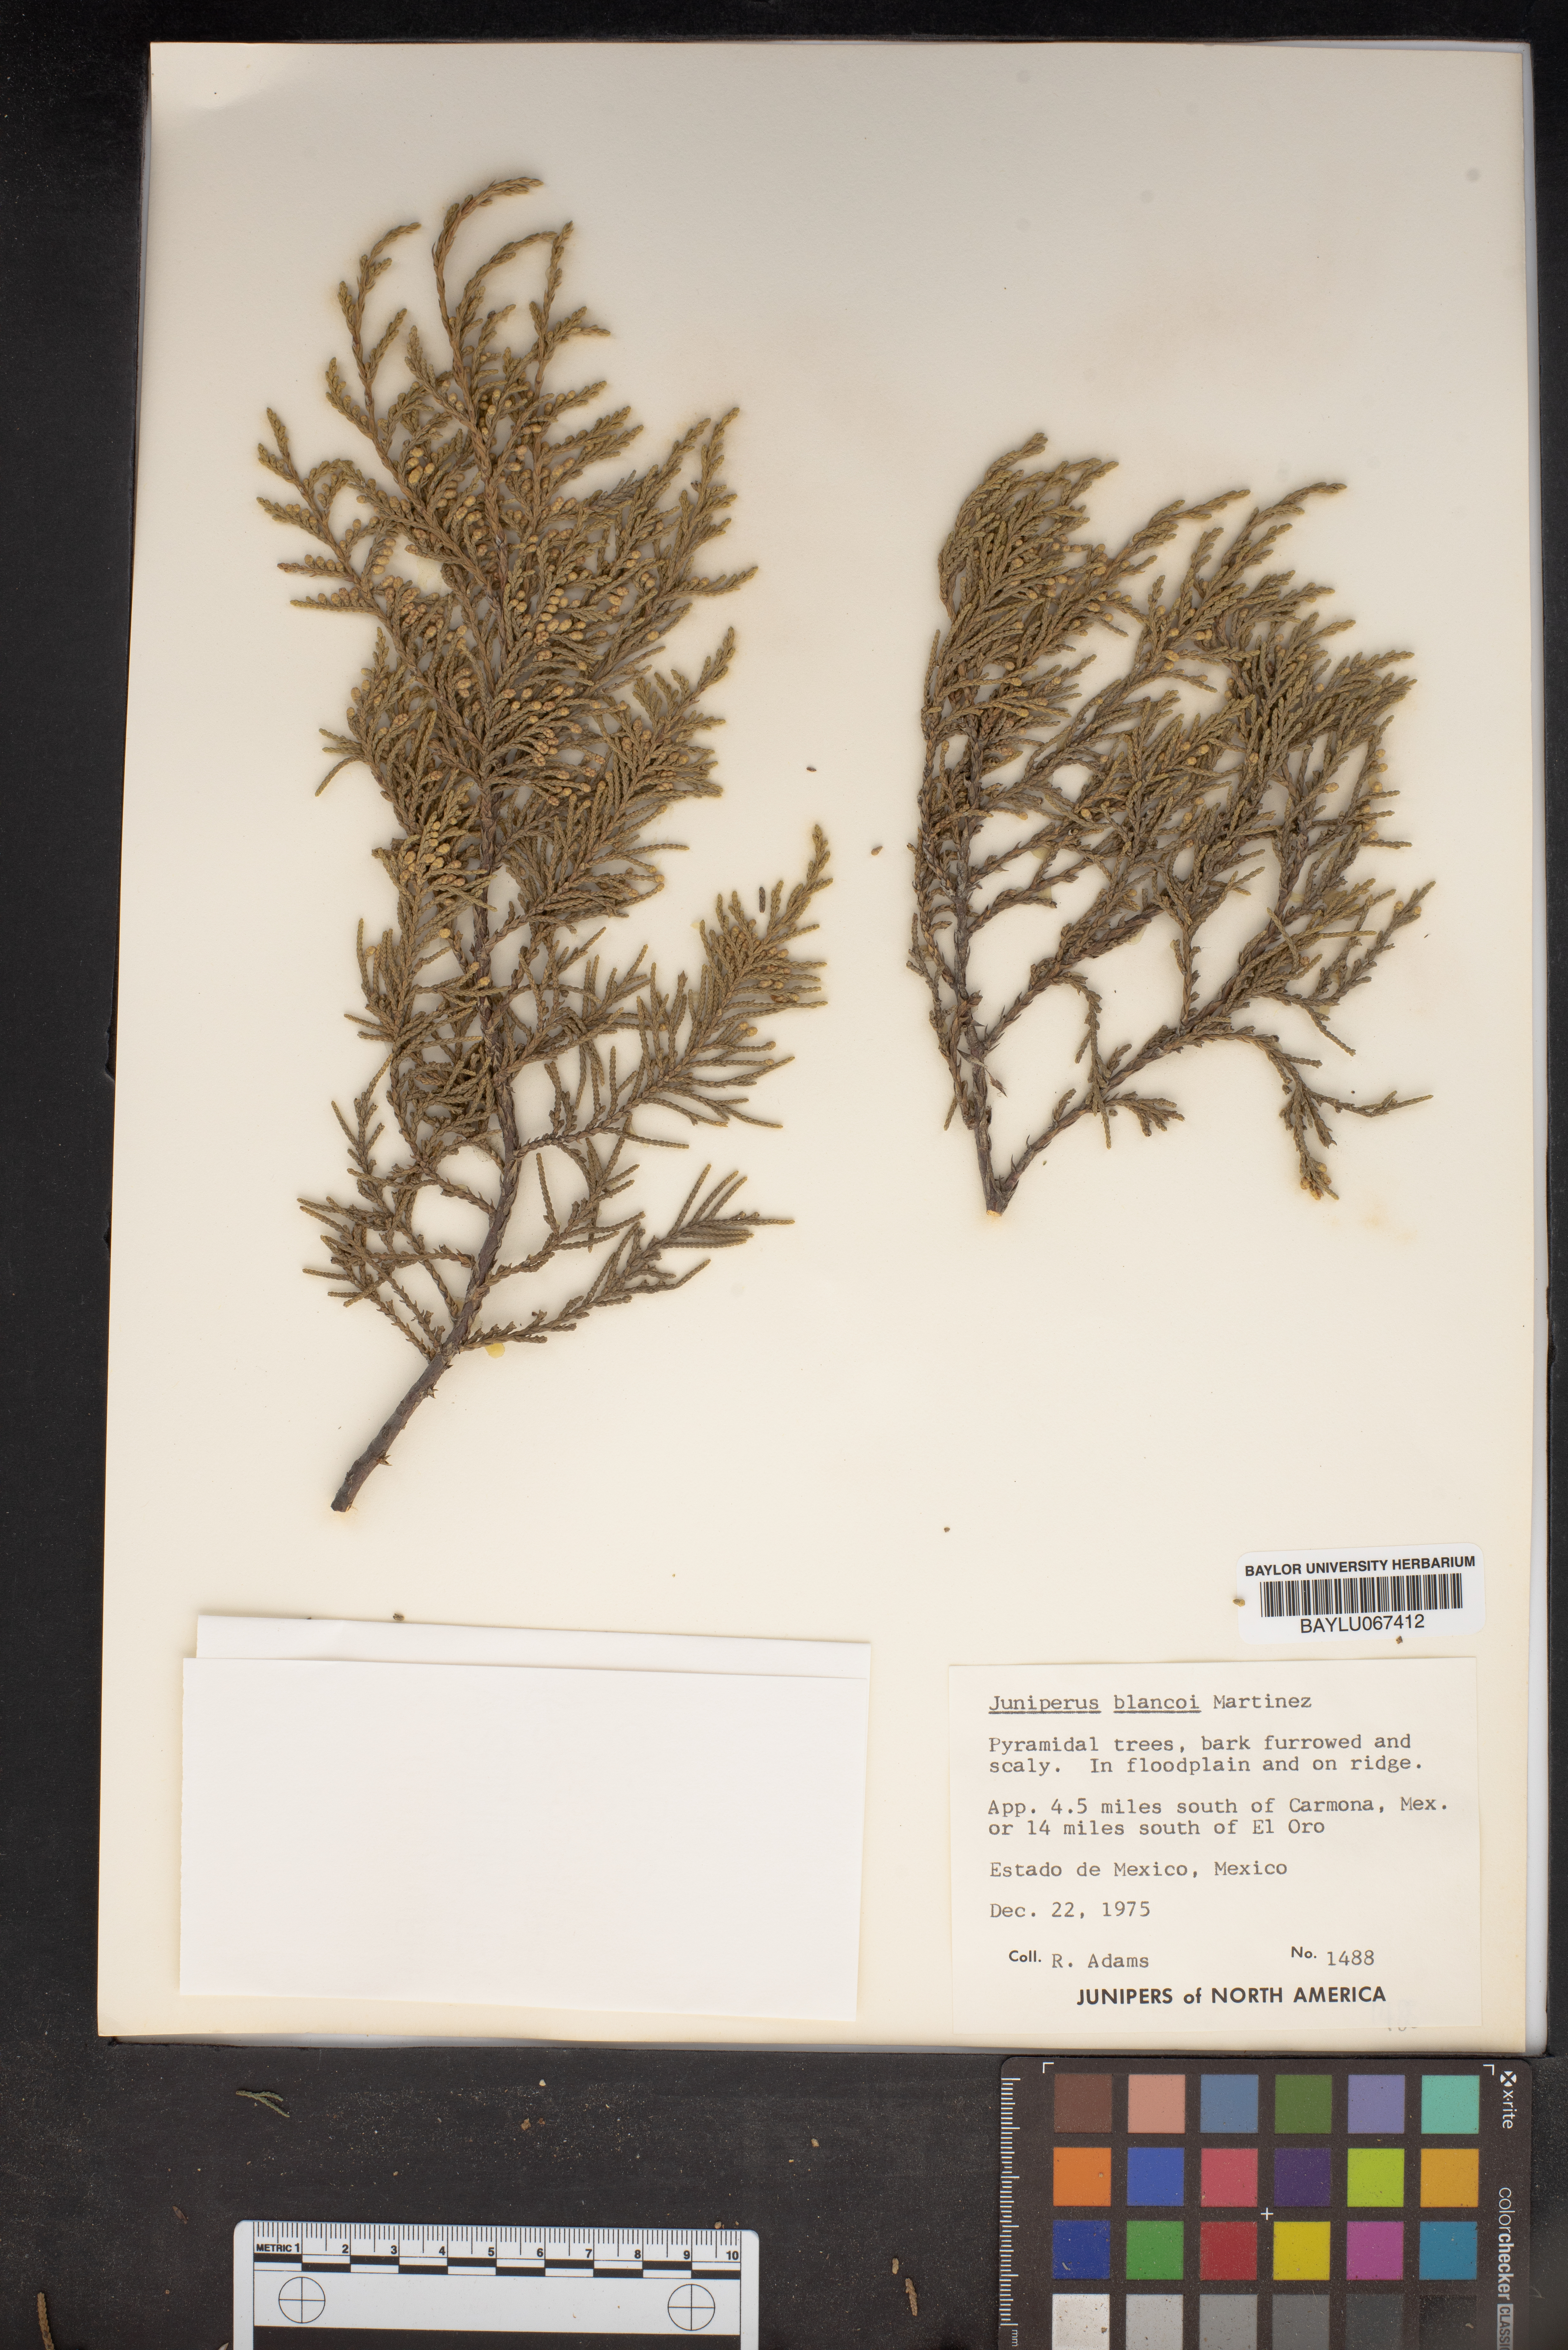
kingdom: Plantae
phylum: Tracheophyta
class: Pinopsida
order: Pinales
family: Cupressaceae
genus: Juniperus
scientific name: Juniperus blancoi
